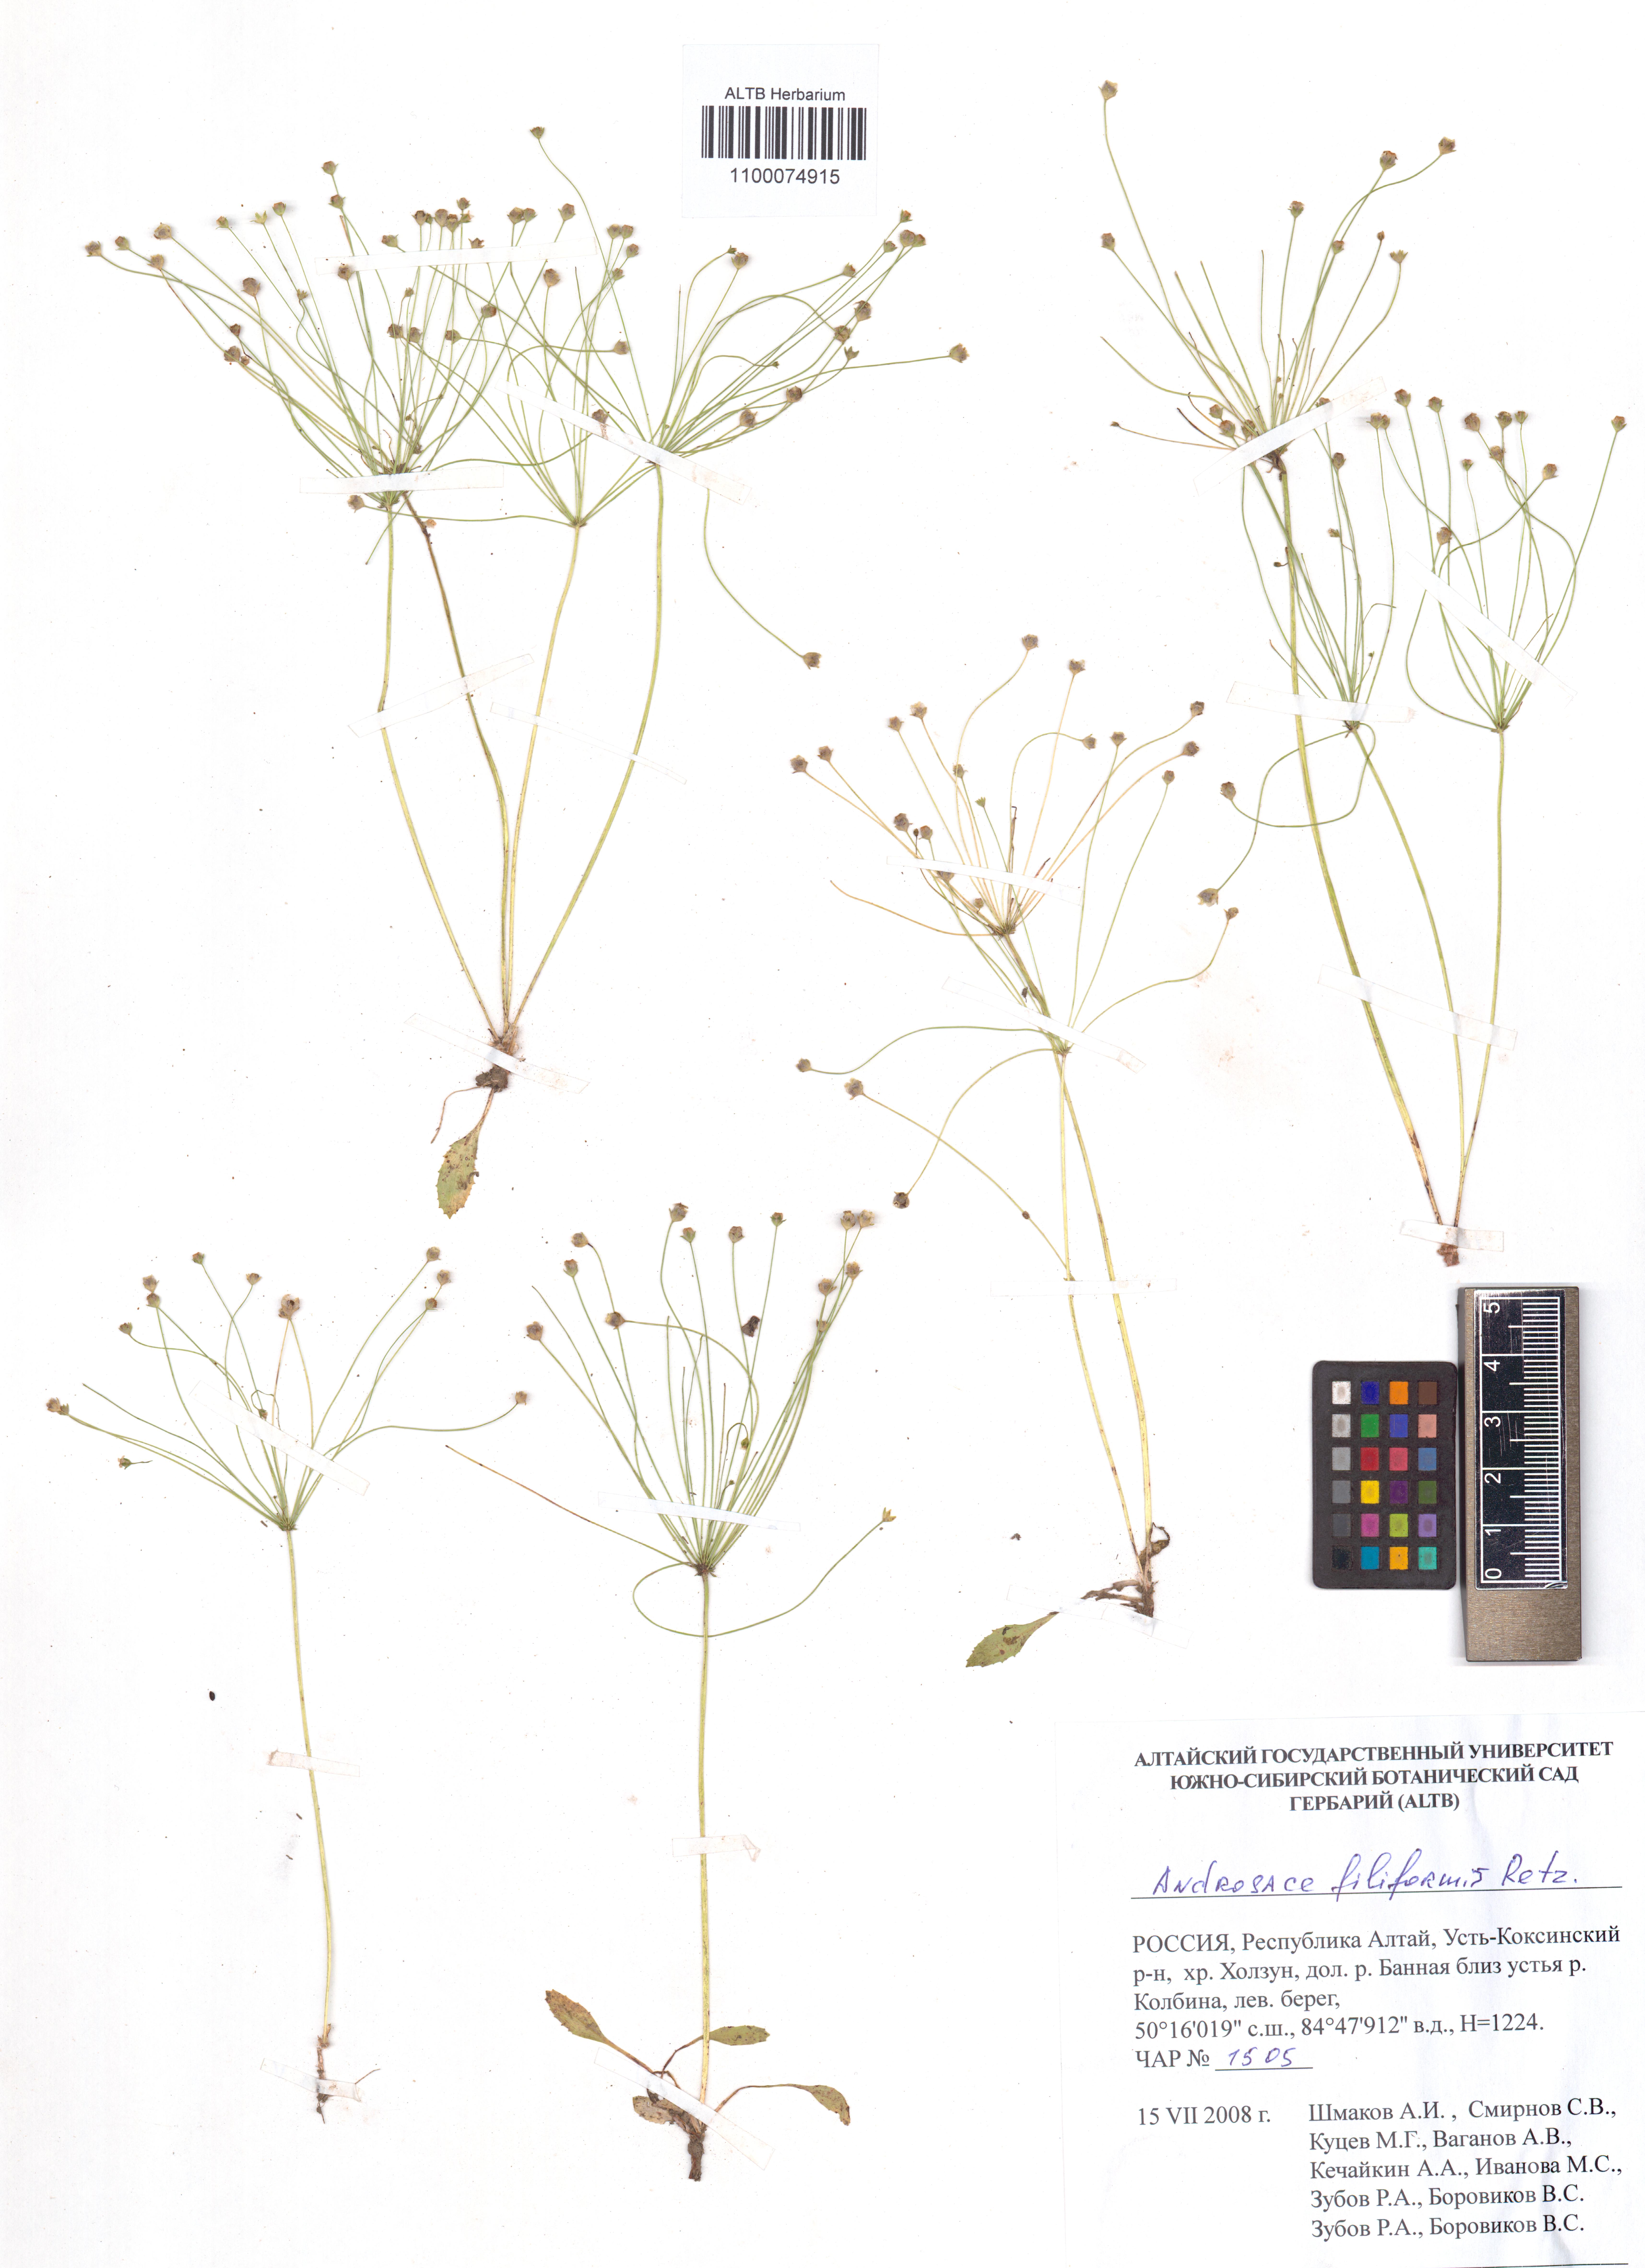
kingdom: Plantae
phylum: Tracheophyta
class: Magnoliopsida
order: Ericales
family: Primulaceae
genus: Androsace
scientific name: Androsace filiformis
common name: Filiform rock jasmine
